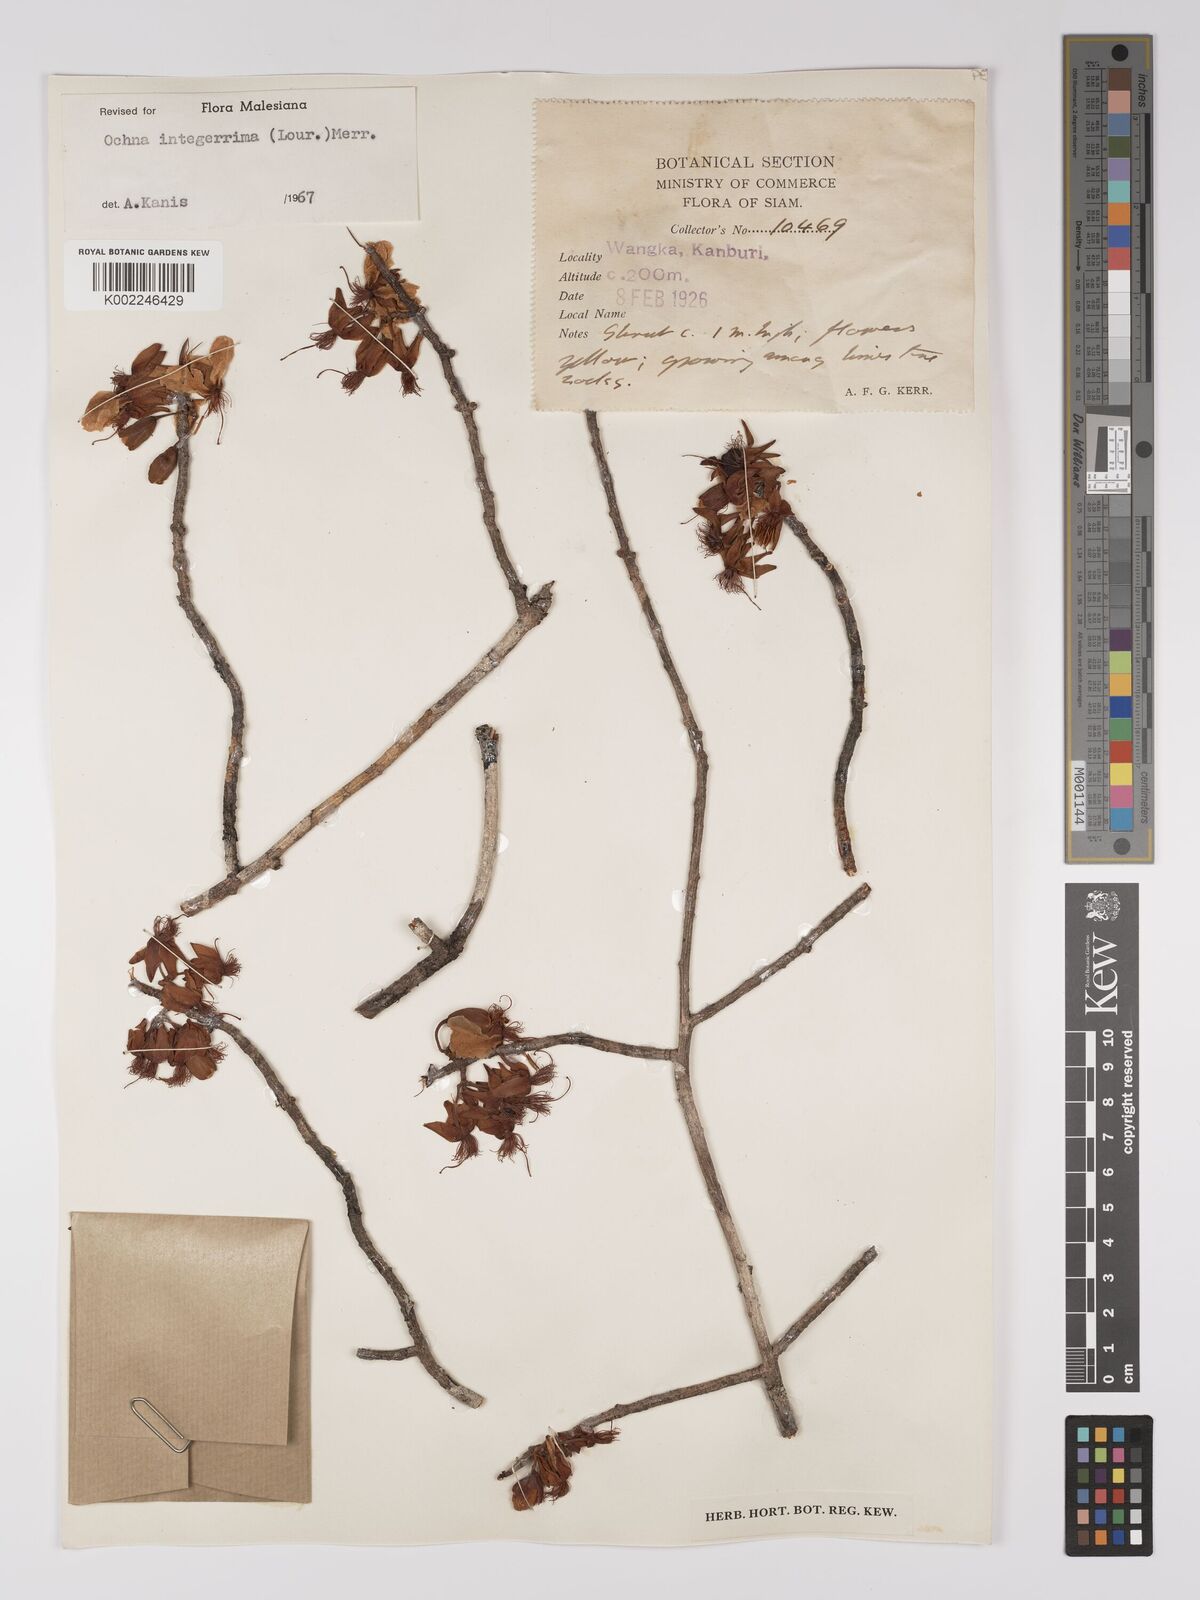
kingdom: Plantae
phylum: Tracheophyta
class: Magnoliopsida
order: Malpighiales
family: Ochnaceae
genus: Ochna
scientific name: Ochna integerrima
